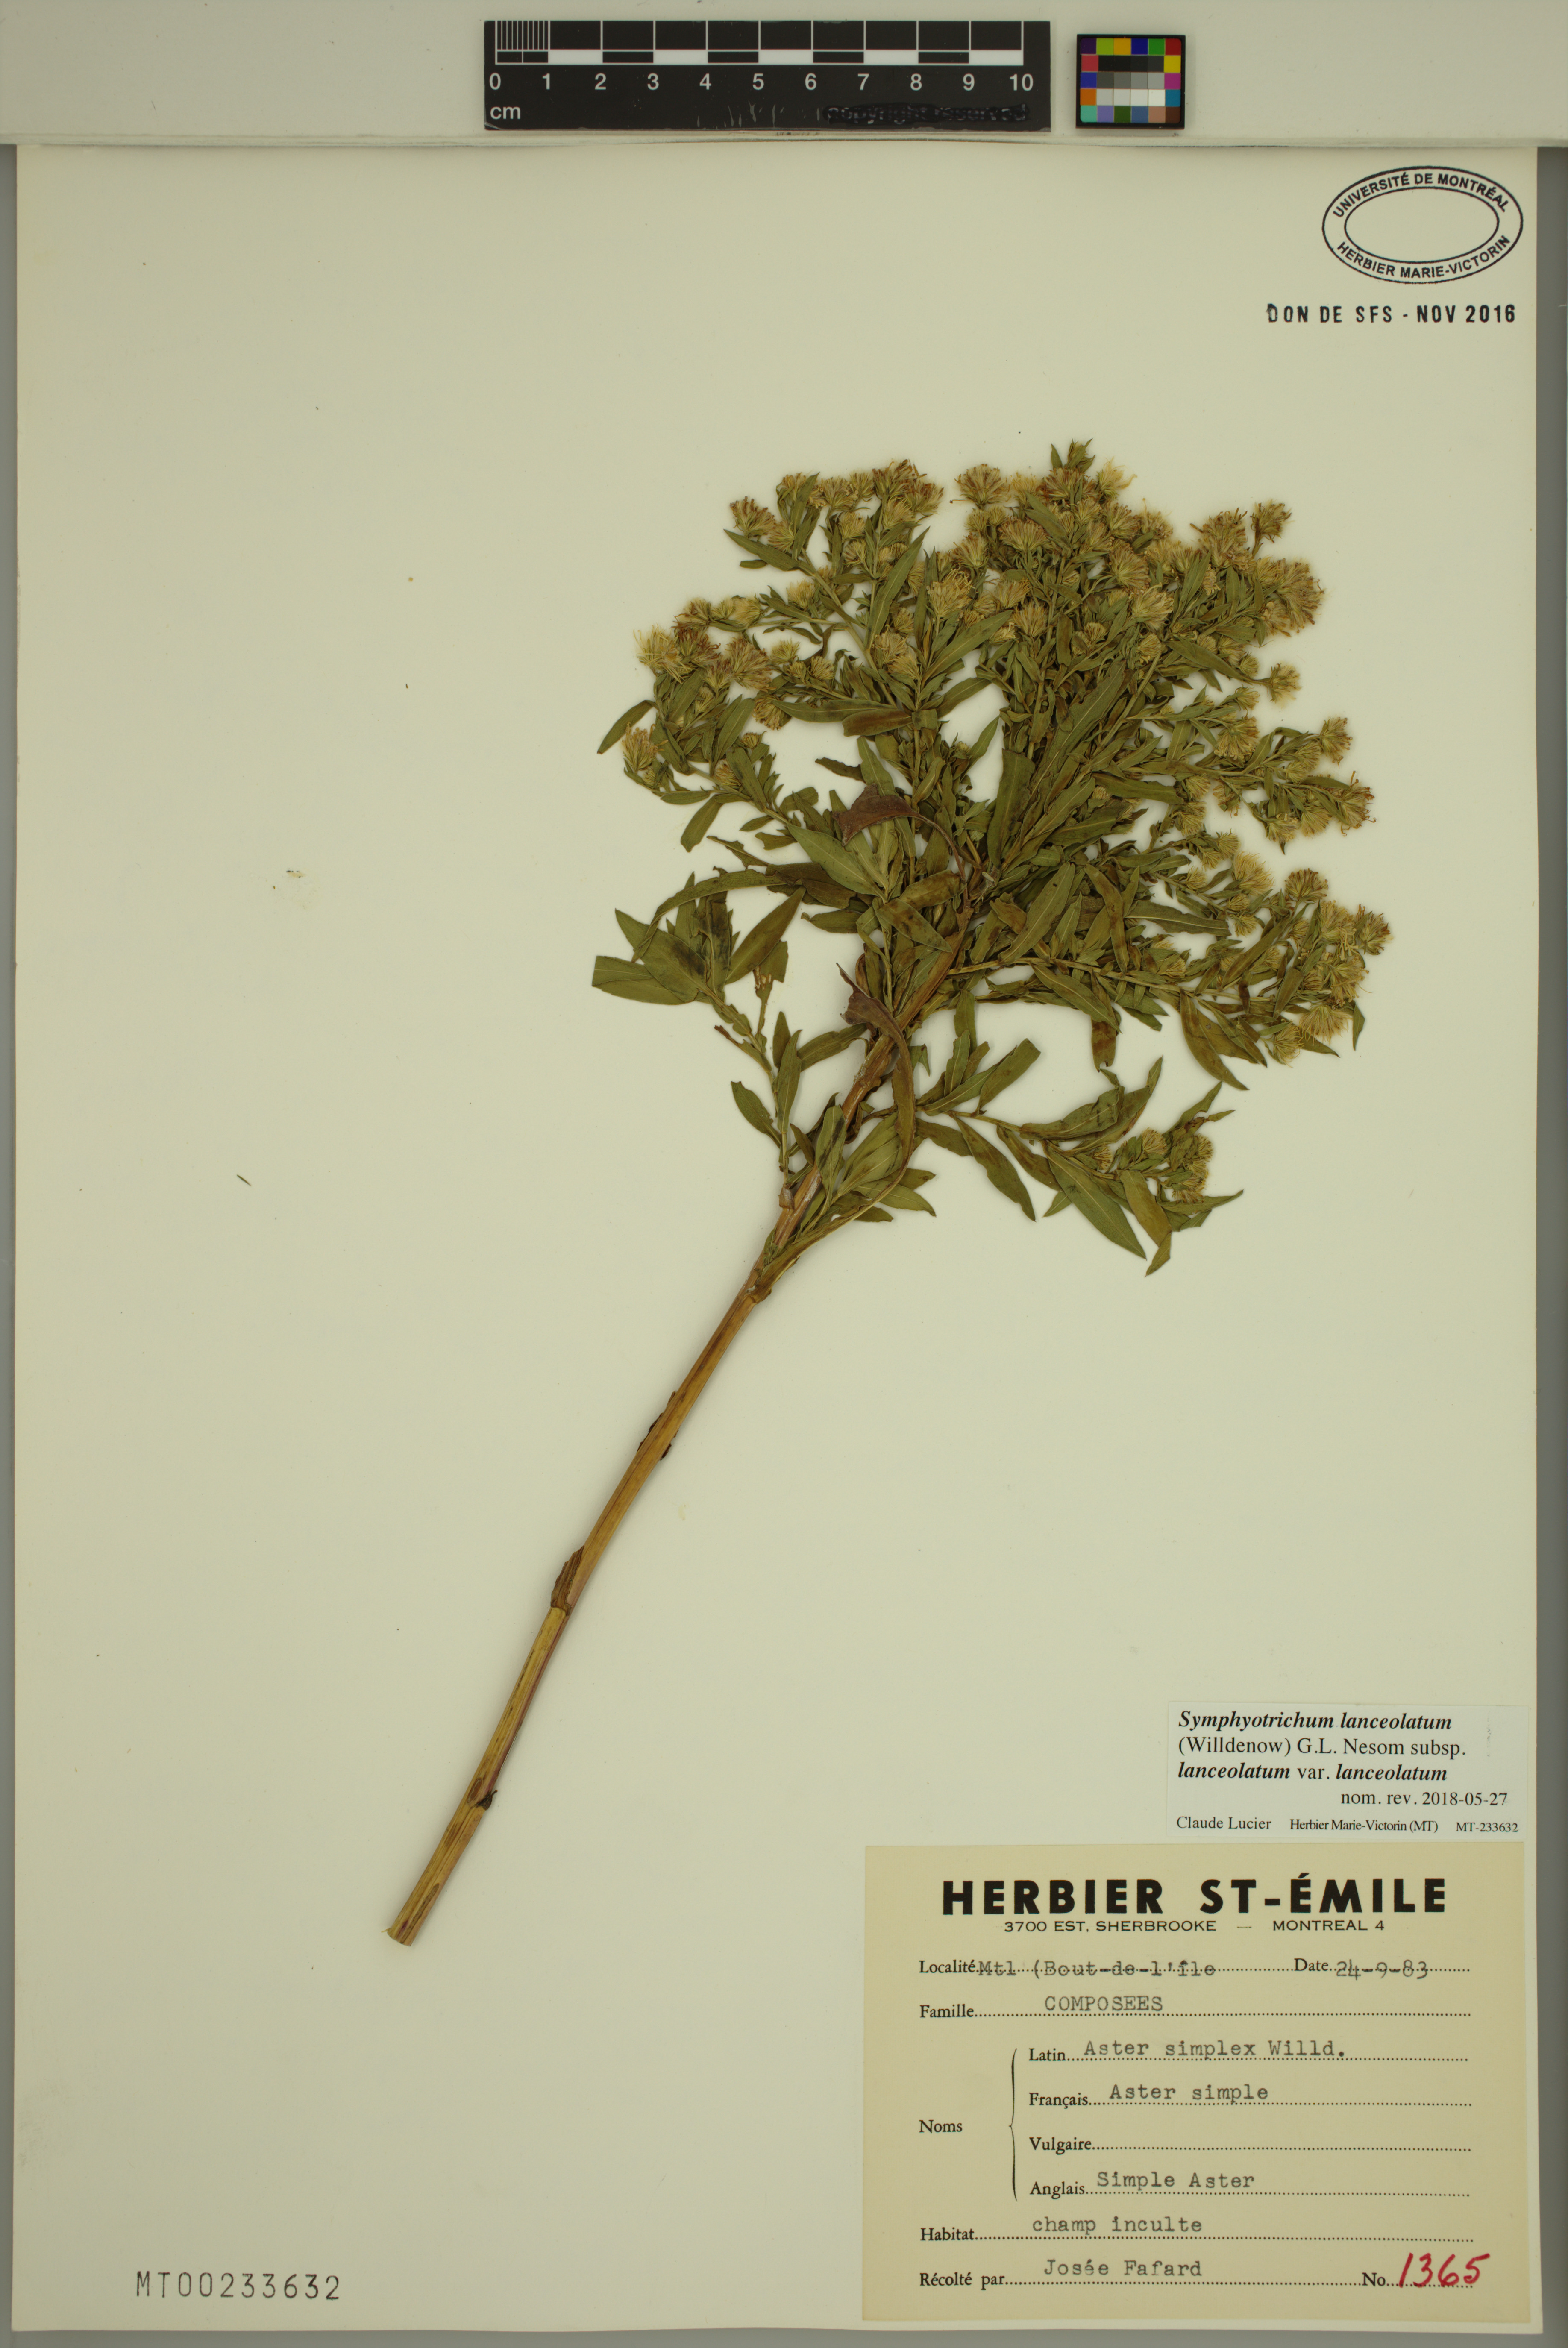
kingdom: Plantae
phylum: Tracheophyta
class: Magnoliopsida
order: Asterales
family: Asteraceae
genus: Symphyotrichum
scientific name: Symphyotrichum lanceolatum
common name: Panicled aster
